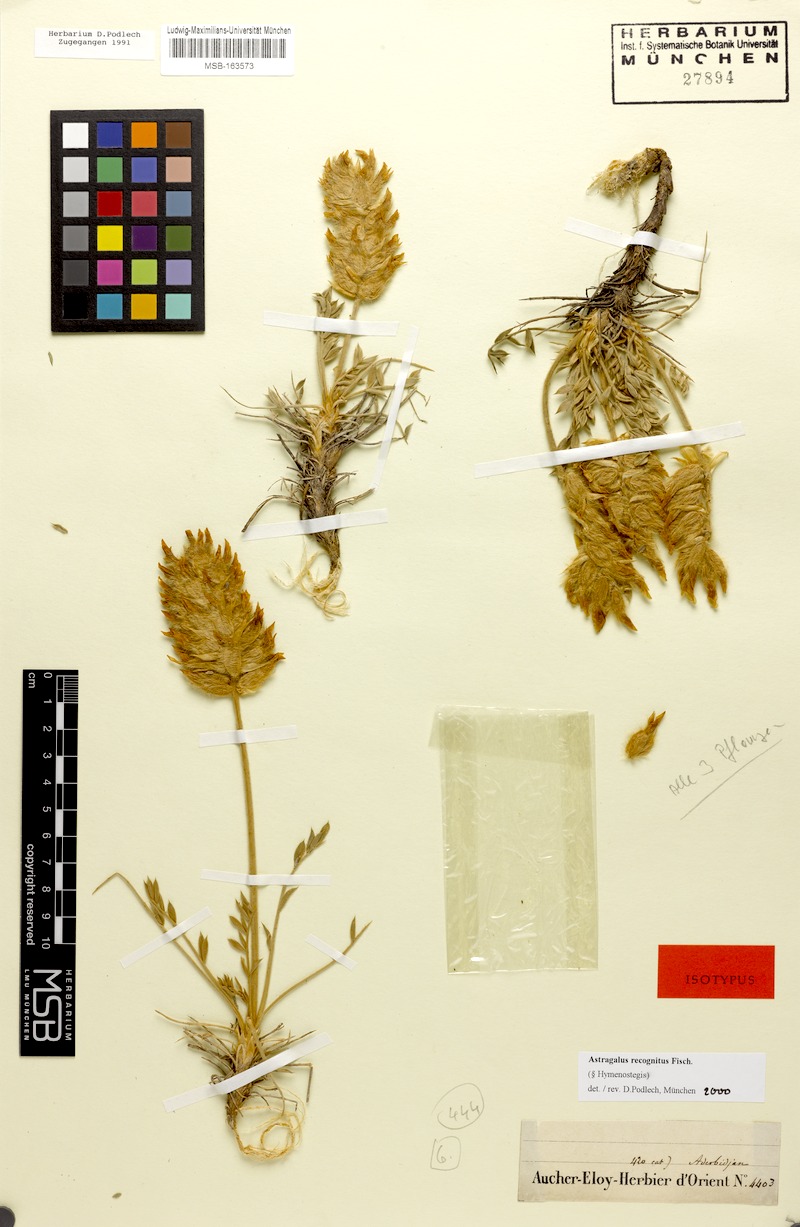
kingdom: Plantae
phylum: Tracheophyta
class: Magnoliopsida
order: Fabales
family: Fabaceae
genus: Astragalus
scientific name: Astragalus recognitus
